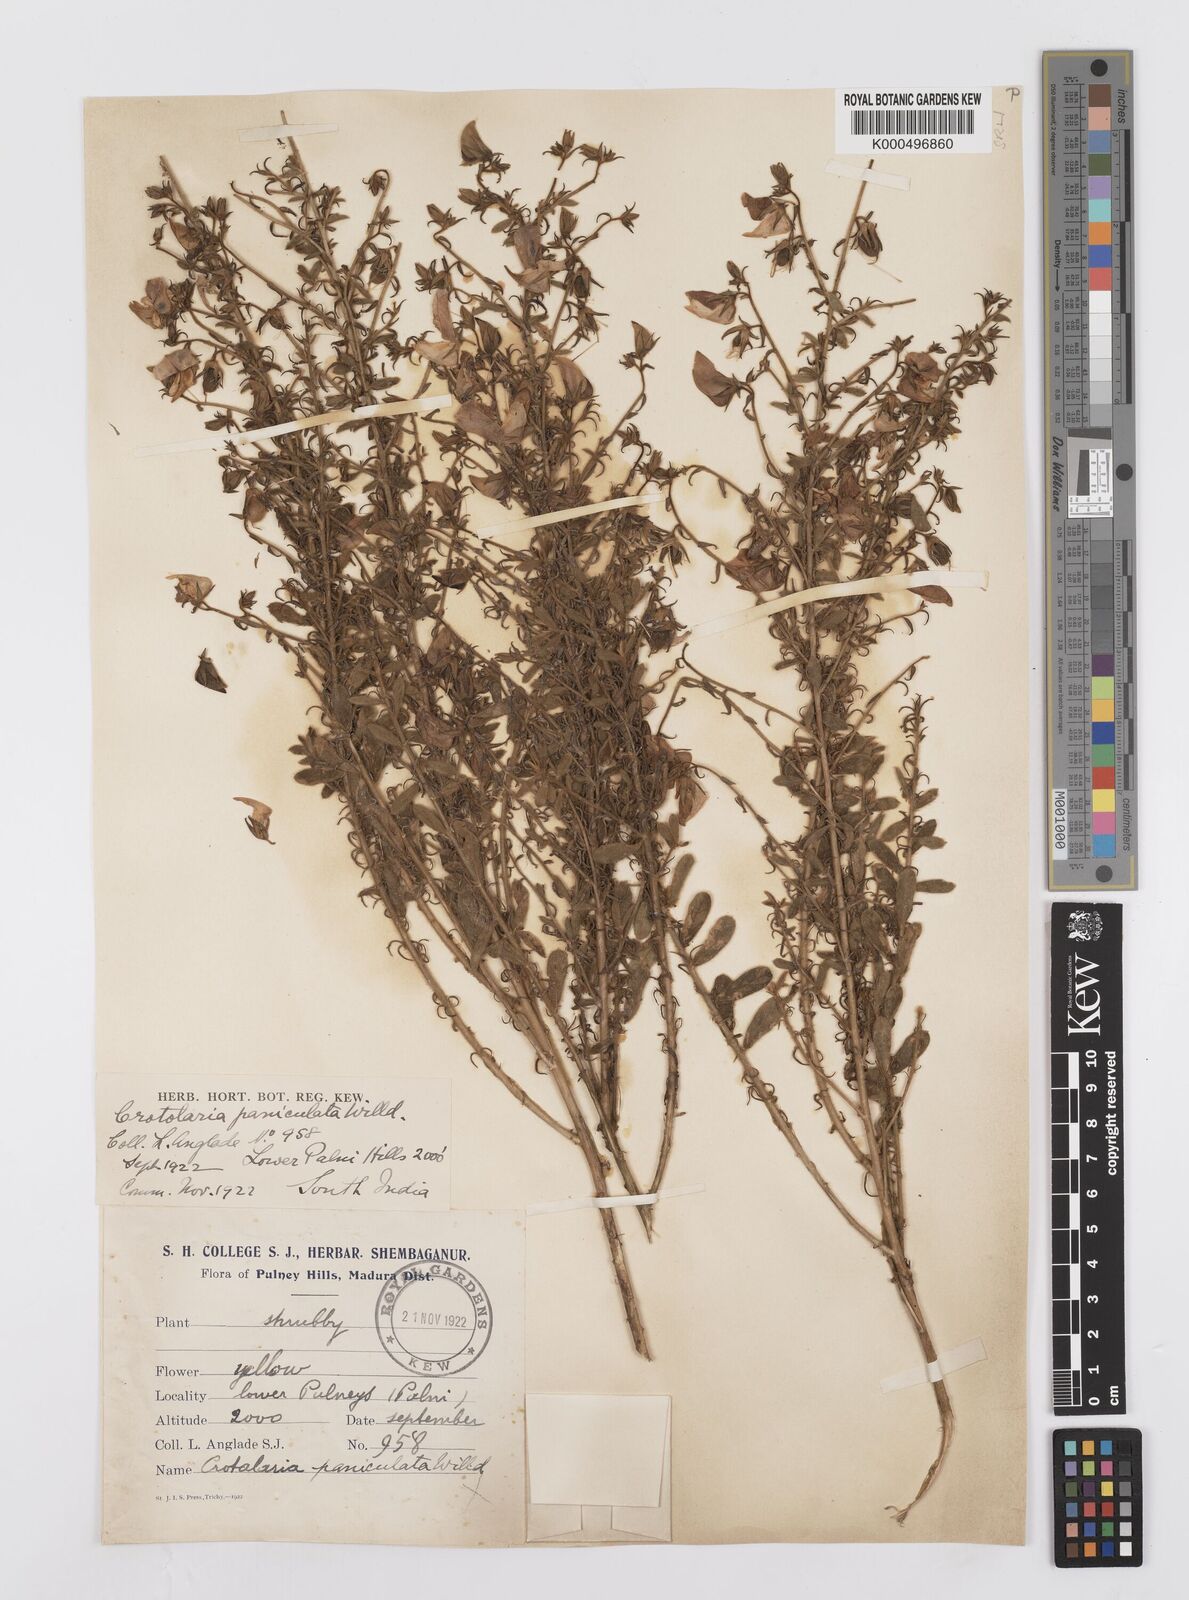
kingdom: Plantae
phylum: Tracheophyta
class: Magnoliopsida
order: Fabales
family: Fabaceae
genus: Crotalaria
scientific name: Crotalaria paniculata
